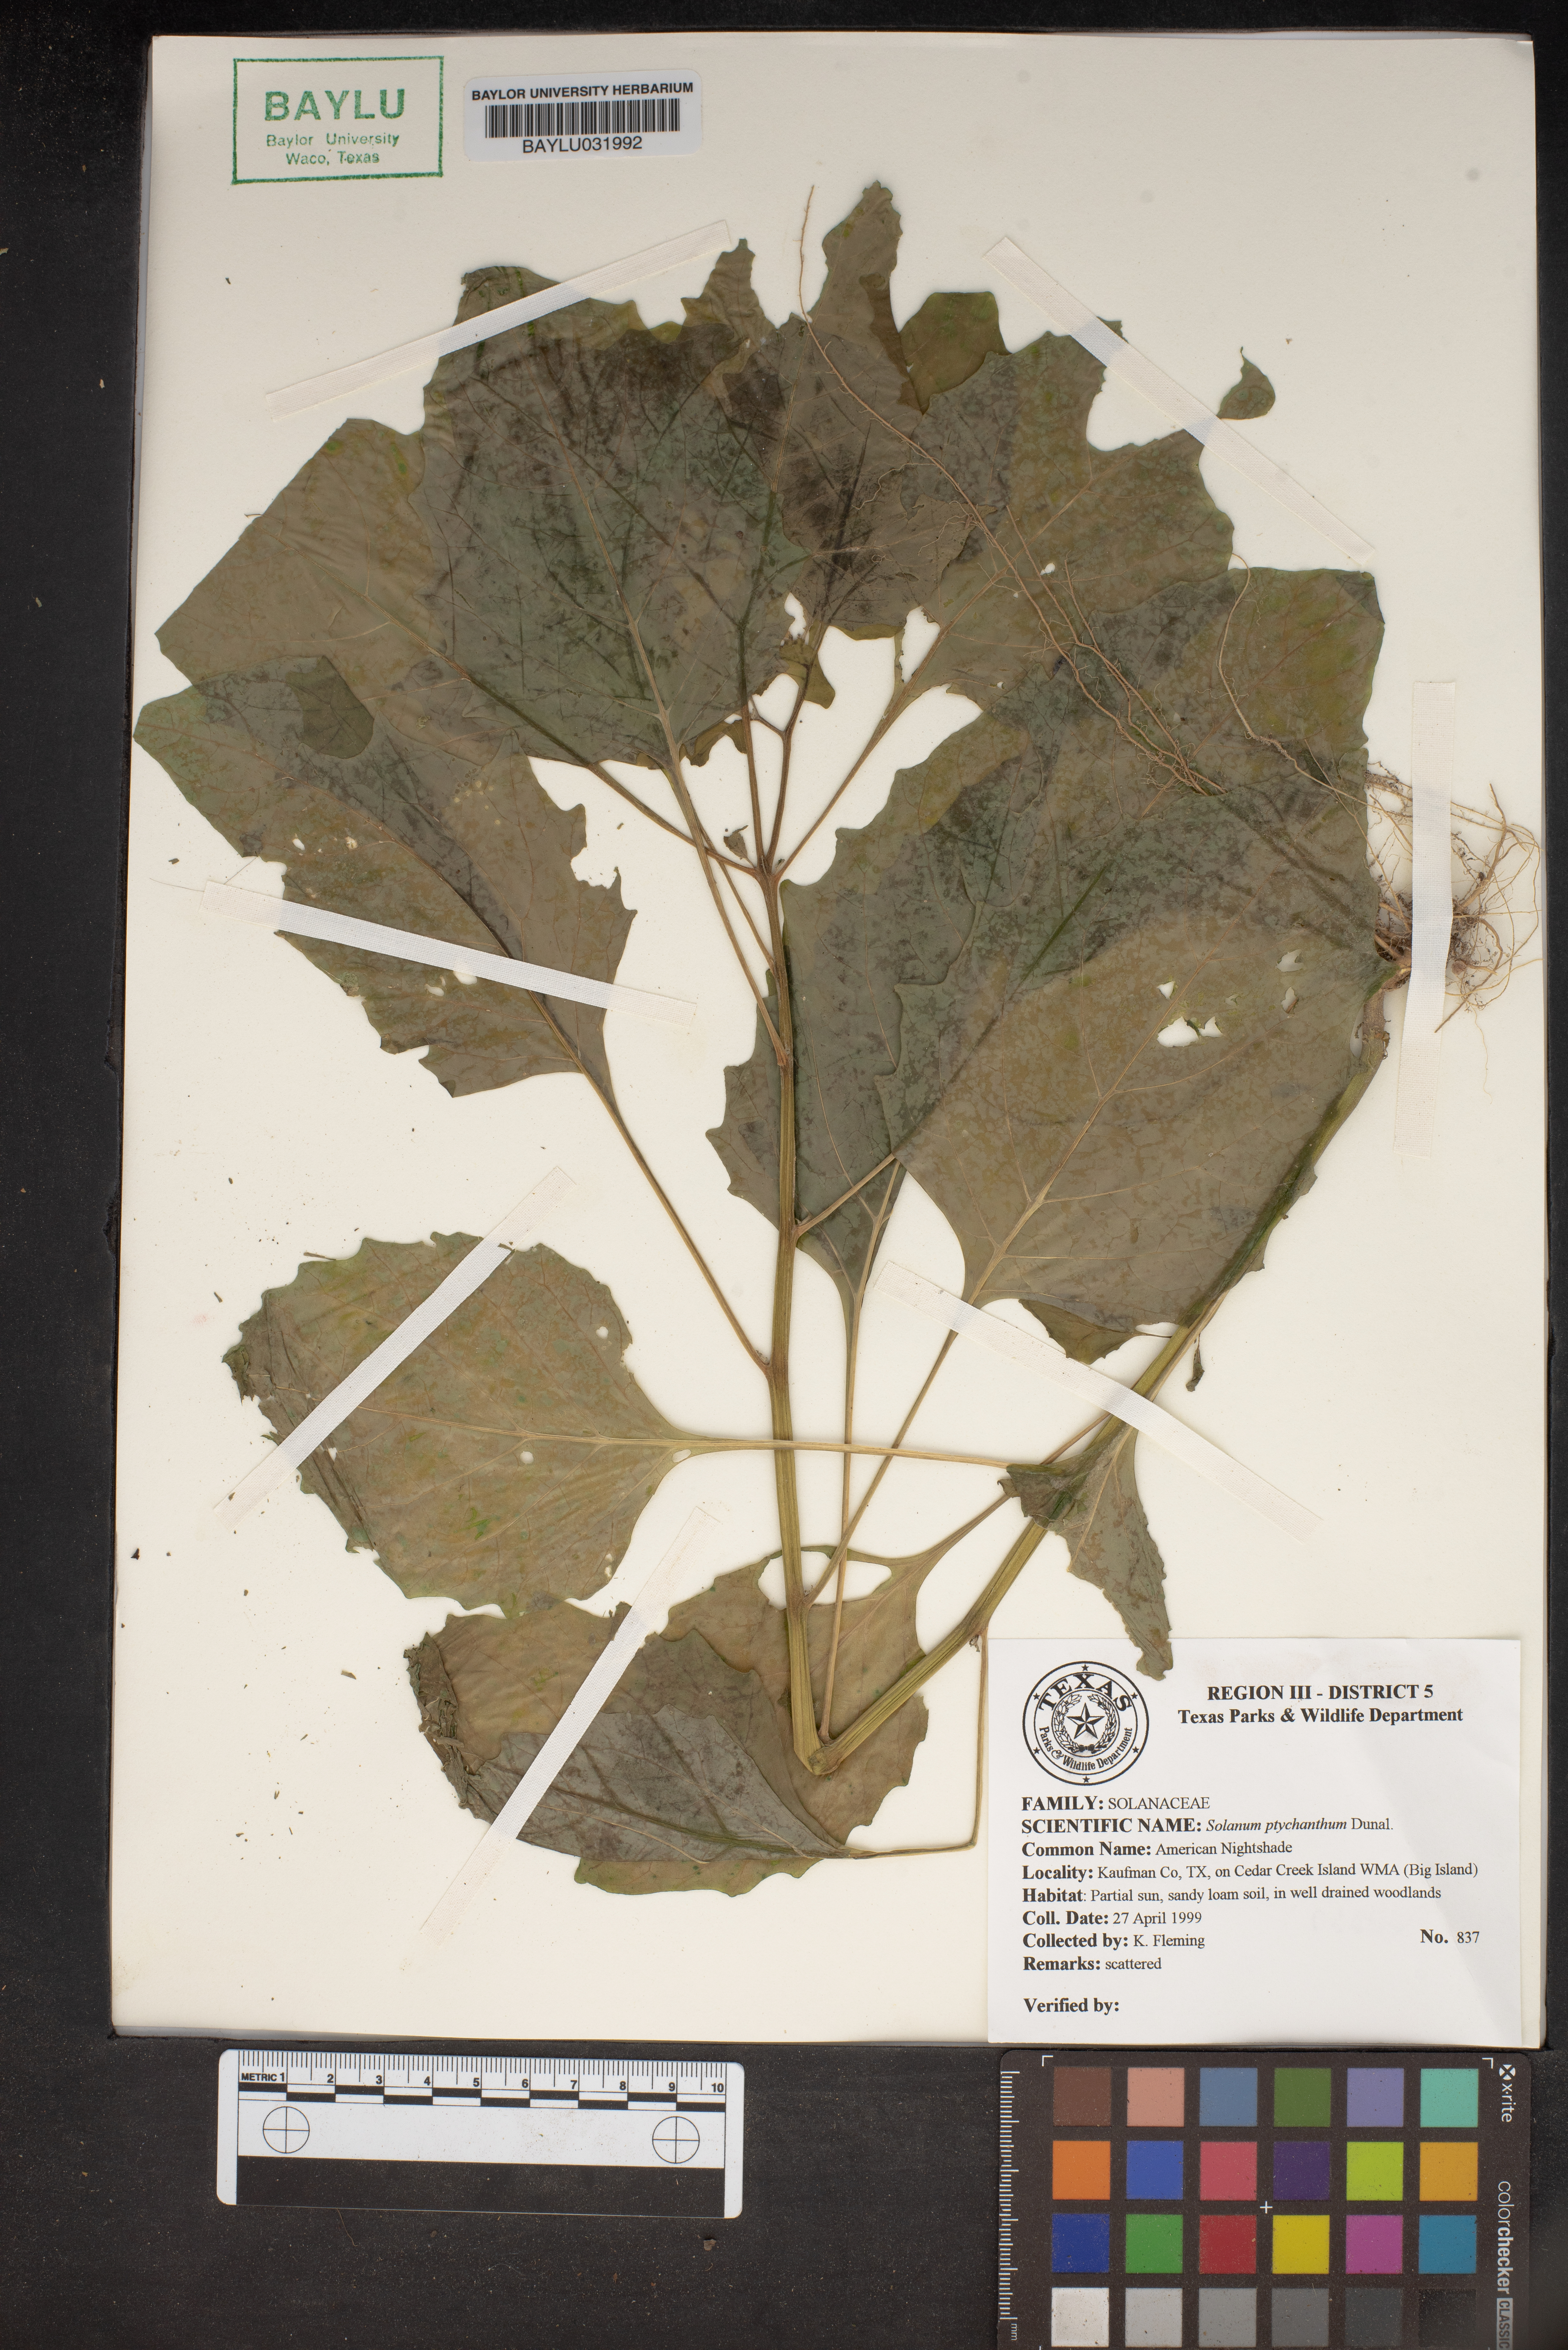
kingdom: Plantae
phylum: Tracheophyta
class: Magnoliopsida
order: Solanales
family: Solanaceae
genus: Solanum
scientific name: Solanum americanum
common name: American black nightshade
